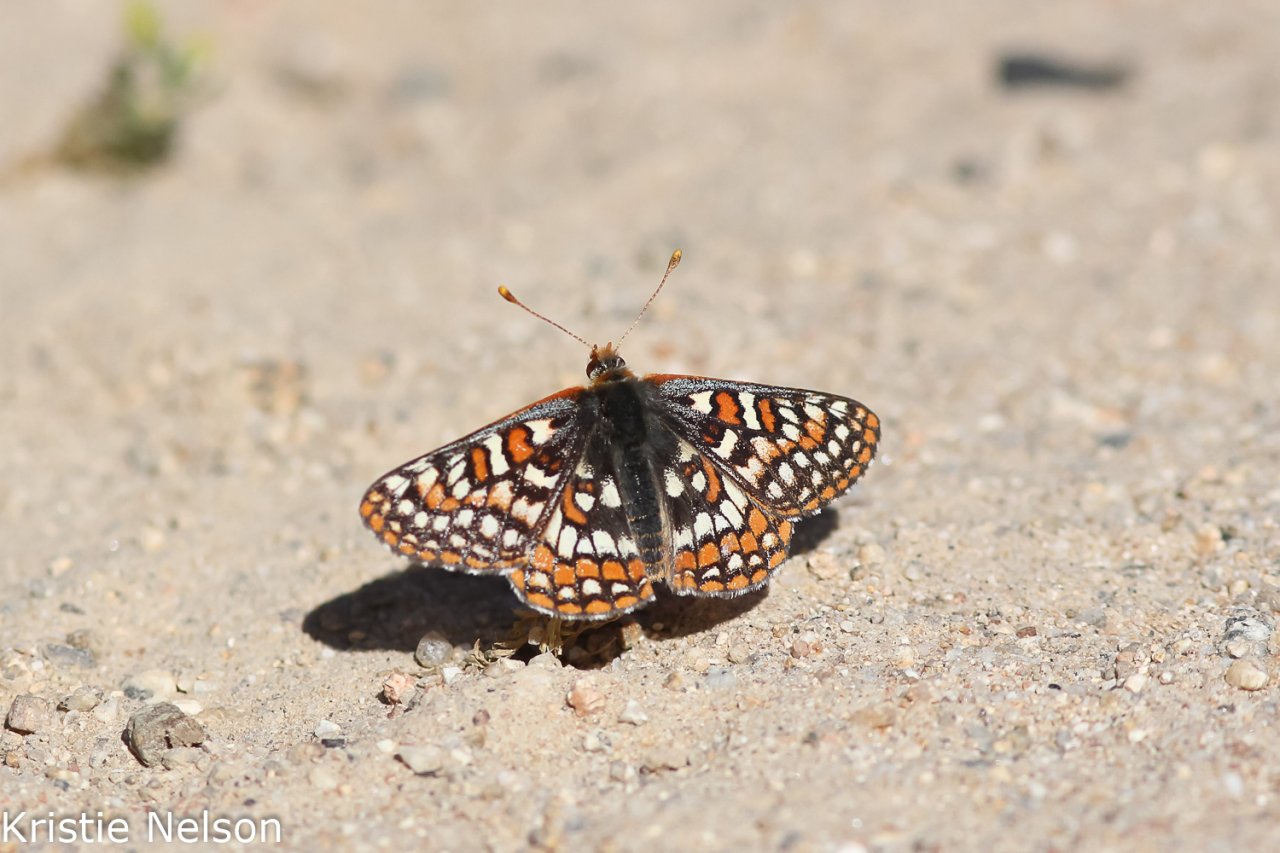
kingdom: Animalia
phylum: Arthropoda
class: Insecta
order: Lepidoptera
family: Nymphalidae
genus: Occidryas
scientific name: Occidryas editha
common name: Edith's Checkerspot
